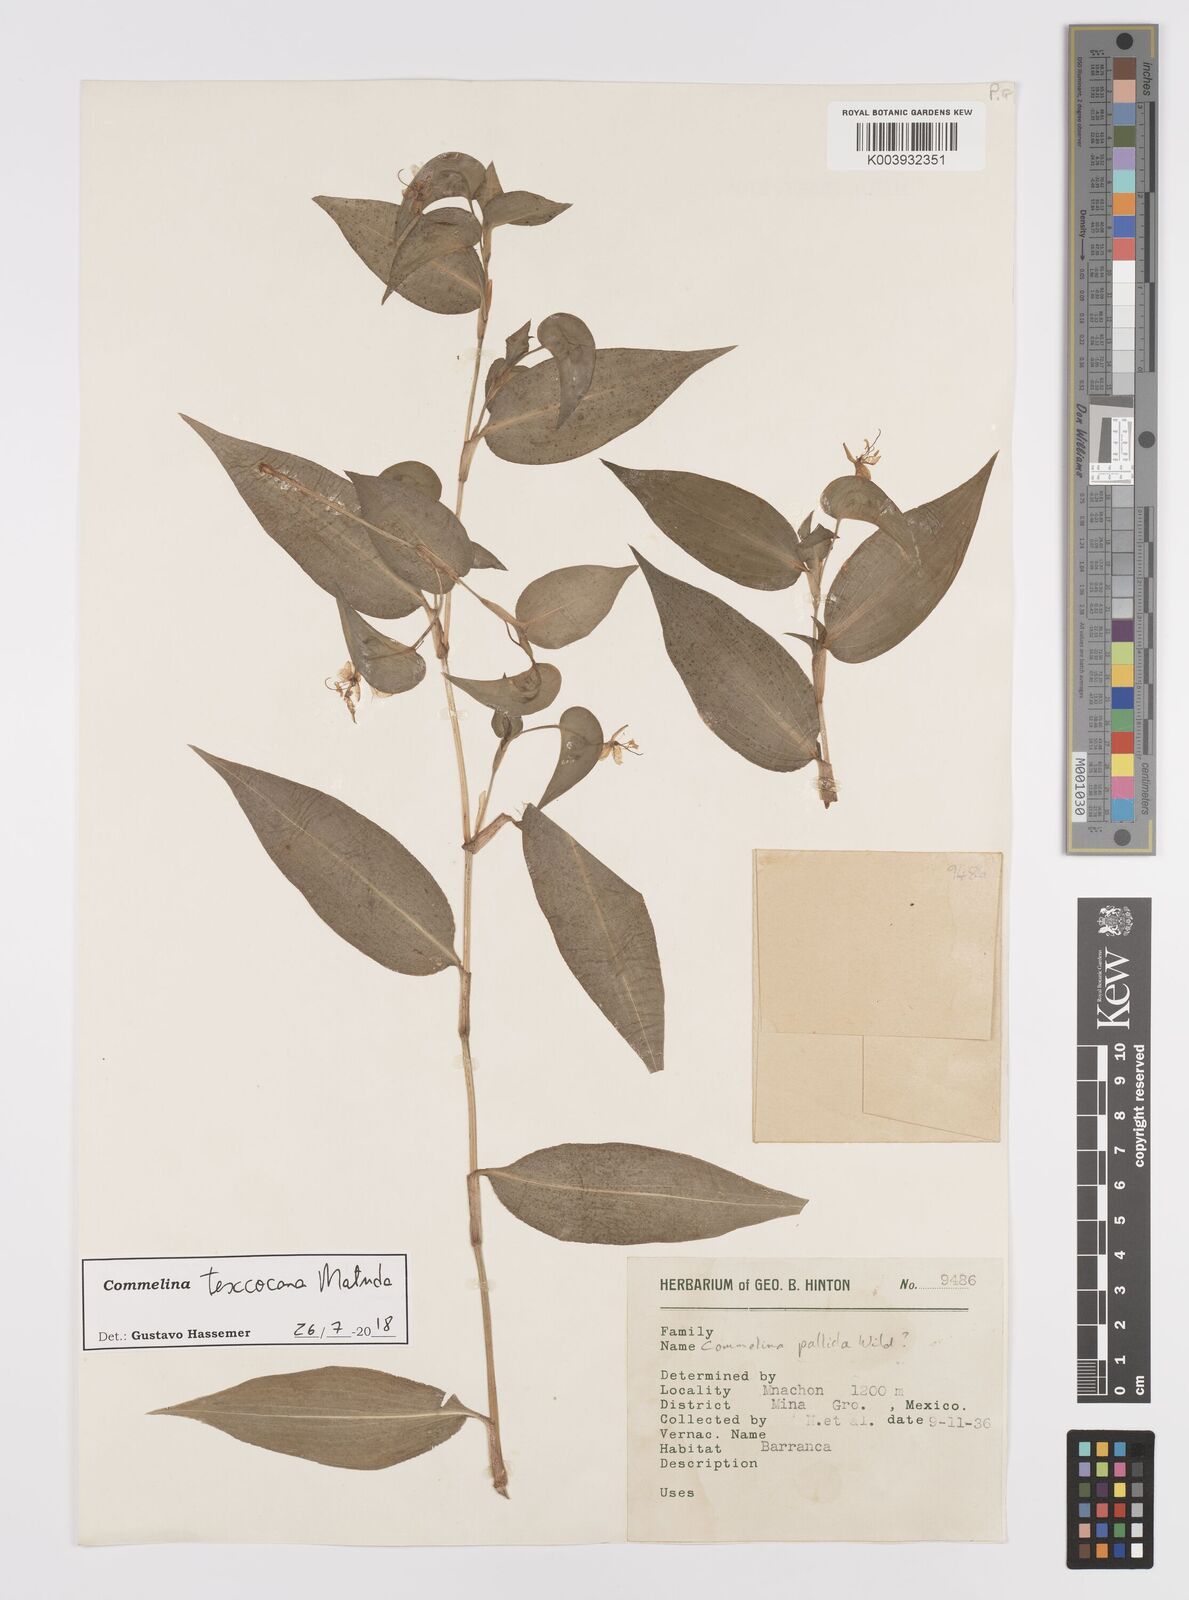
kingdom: Plantae
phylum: Tracheophyta
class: Liliopsida
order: Commelinales
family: Commelinaceae
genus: Commelina
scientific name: Commelina texcocana
